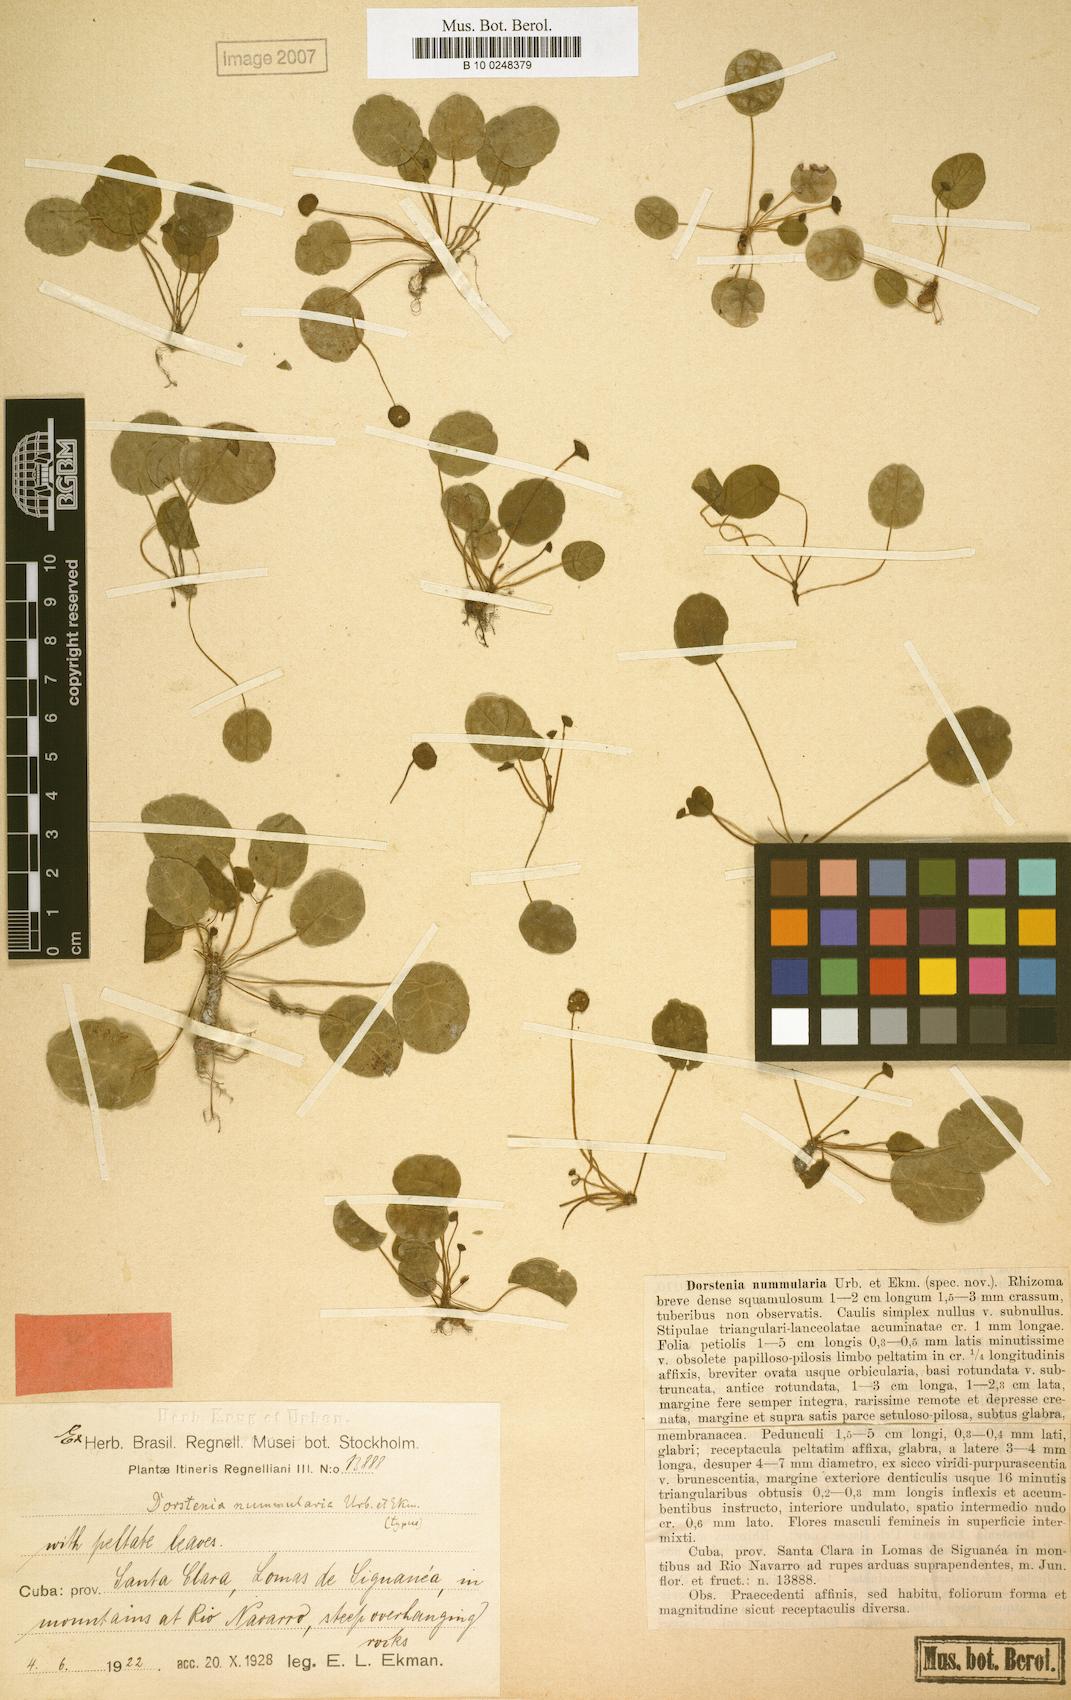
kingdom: Plantae
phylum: Tracheophyta
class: Magnoliopsida
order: Rosales
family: Moraceae
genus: Dorstenia
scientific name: Dorstenia nummularia
